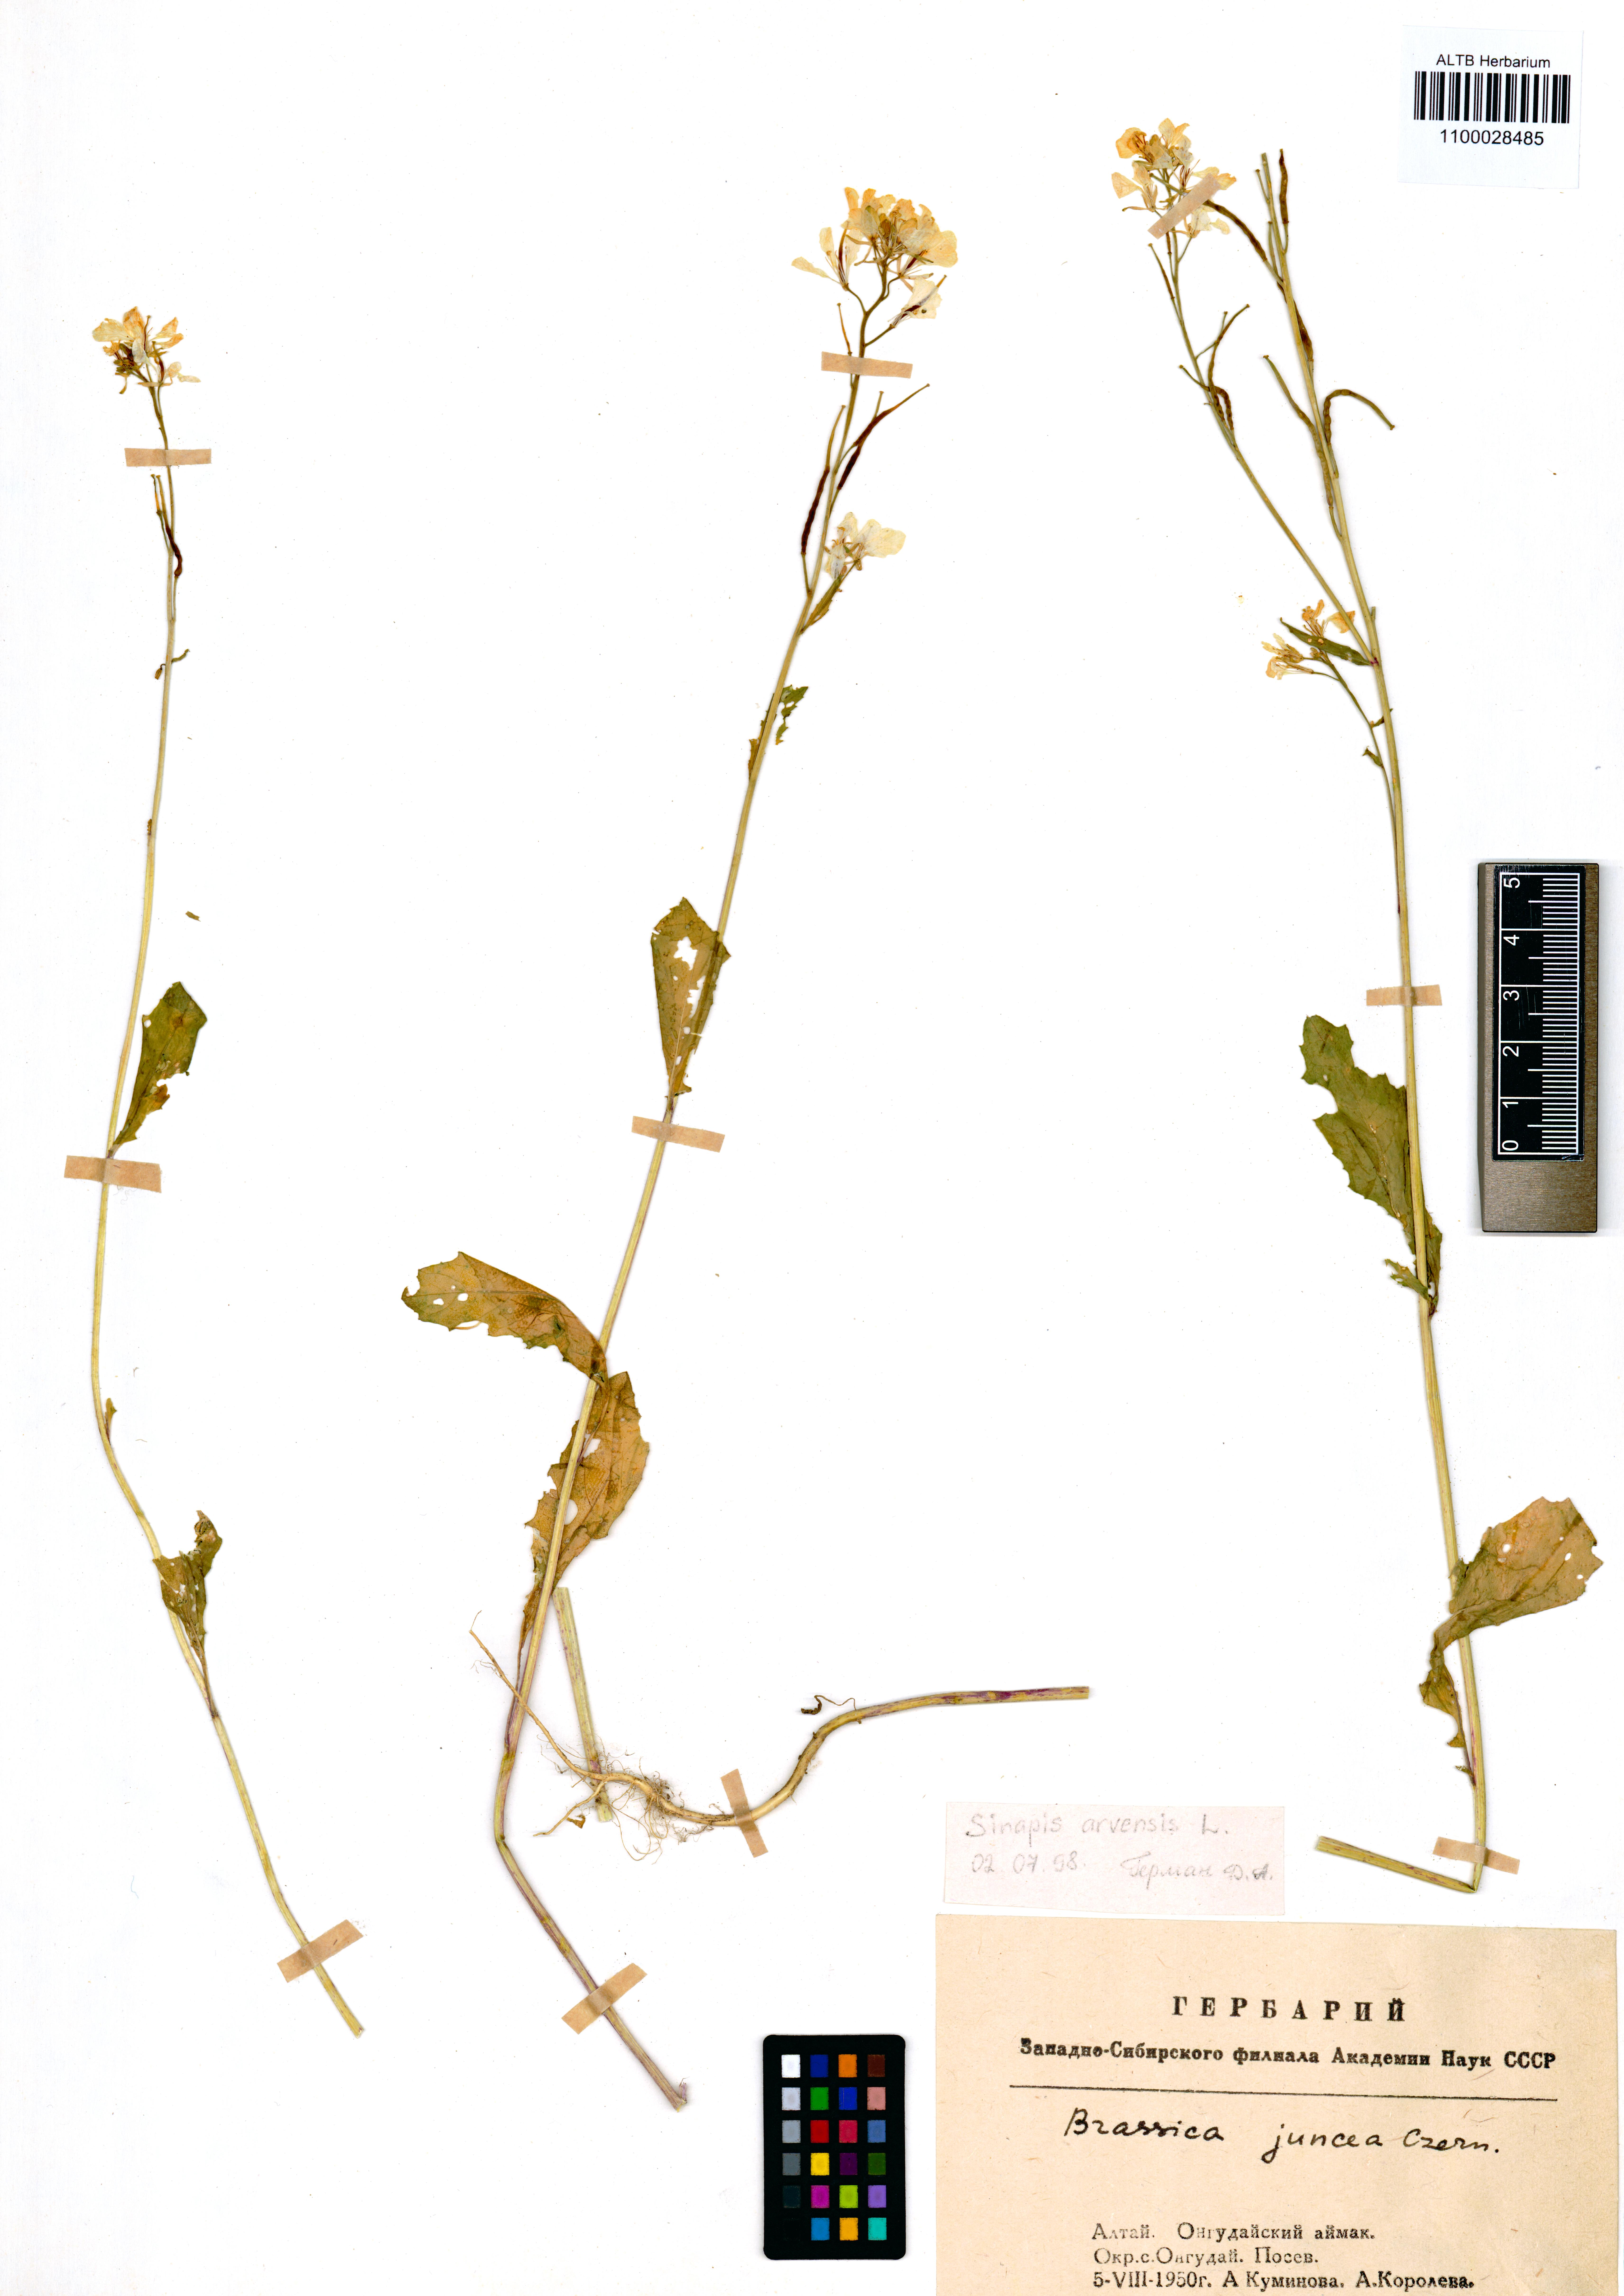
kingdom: Plantae
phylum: Tracheophyta
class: Magnoliopsida
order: Brassicales
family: Brassicaceae
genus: Sinapis
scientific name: Sinapis arvensis
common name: Charlock
